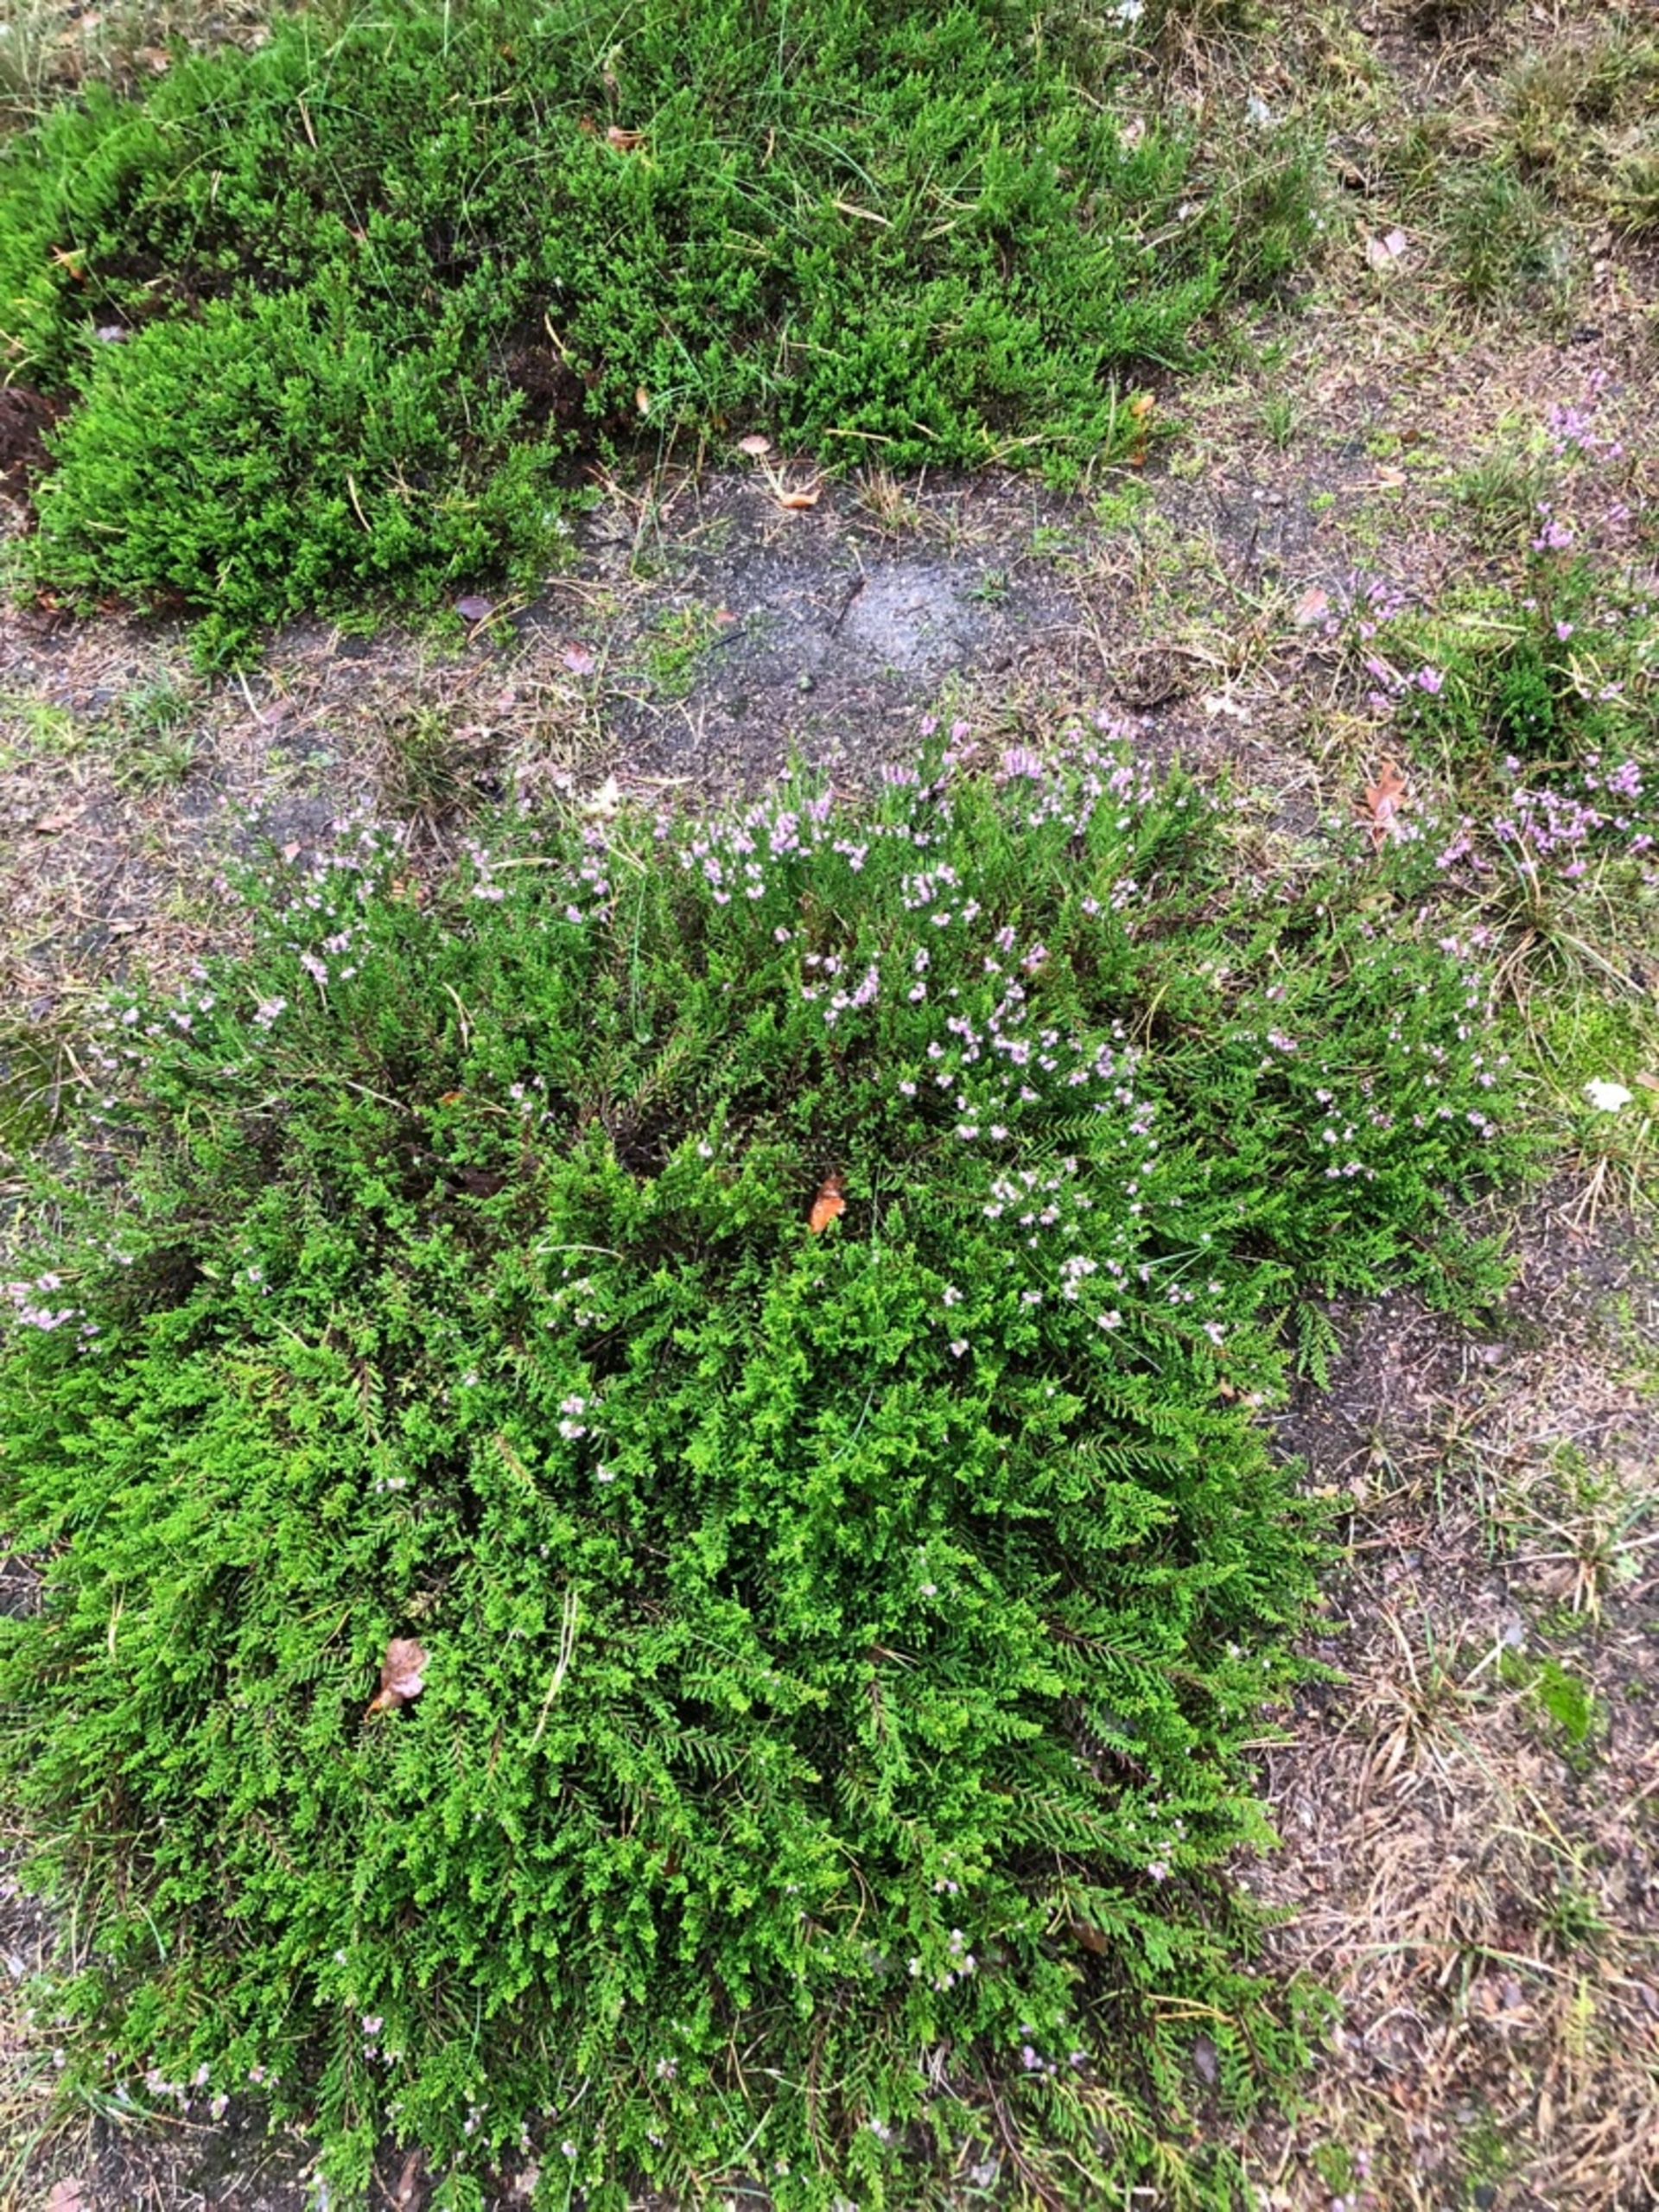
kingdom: Plantae
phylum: Tracheophyta
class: Magnoliopsida
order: Ericales
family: Ericaceae
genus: Calluna
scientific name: Calluna vulgaris
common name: Hedelyng
